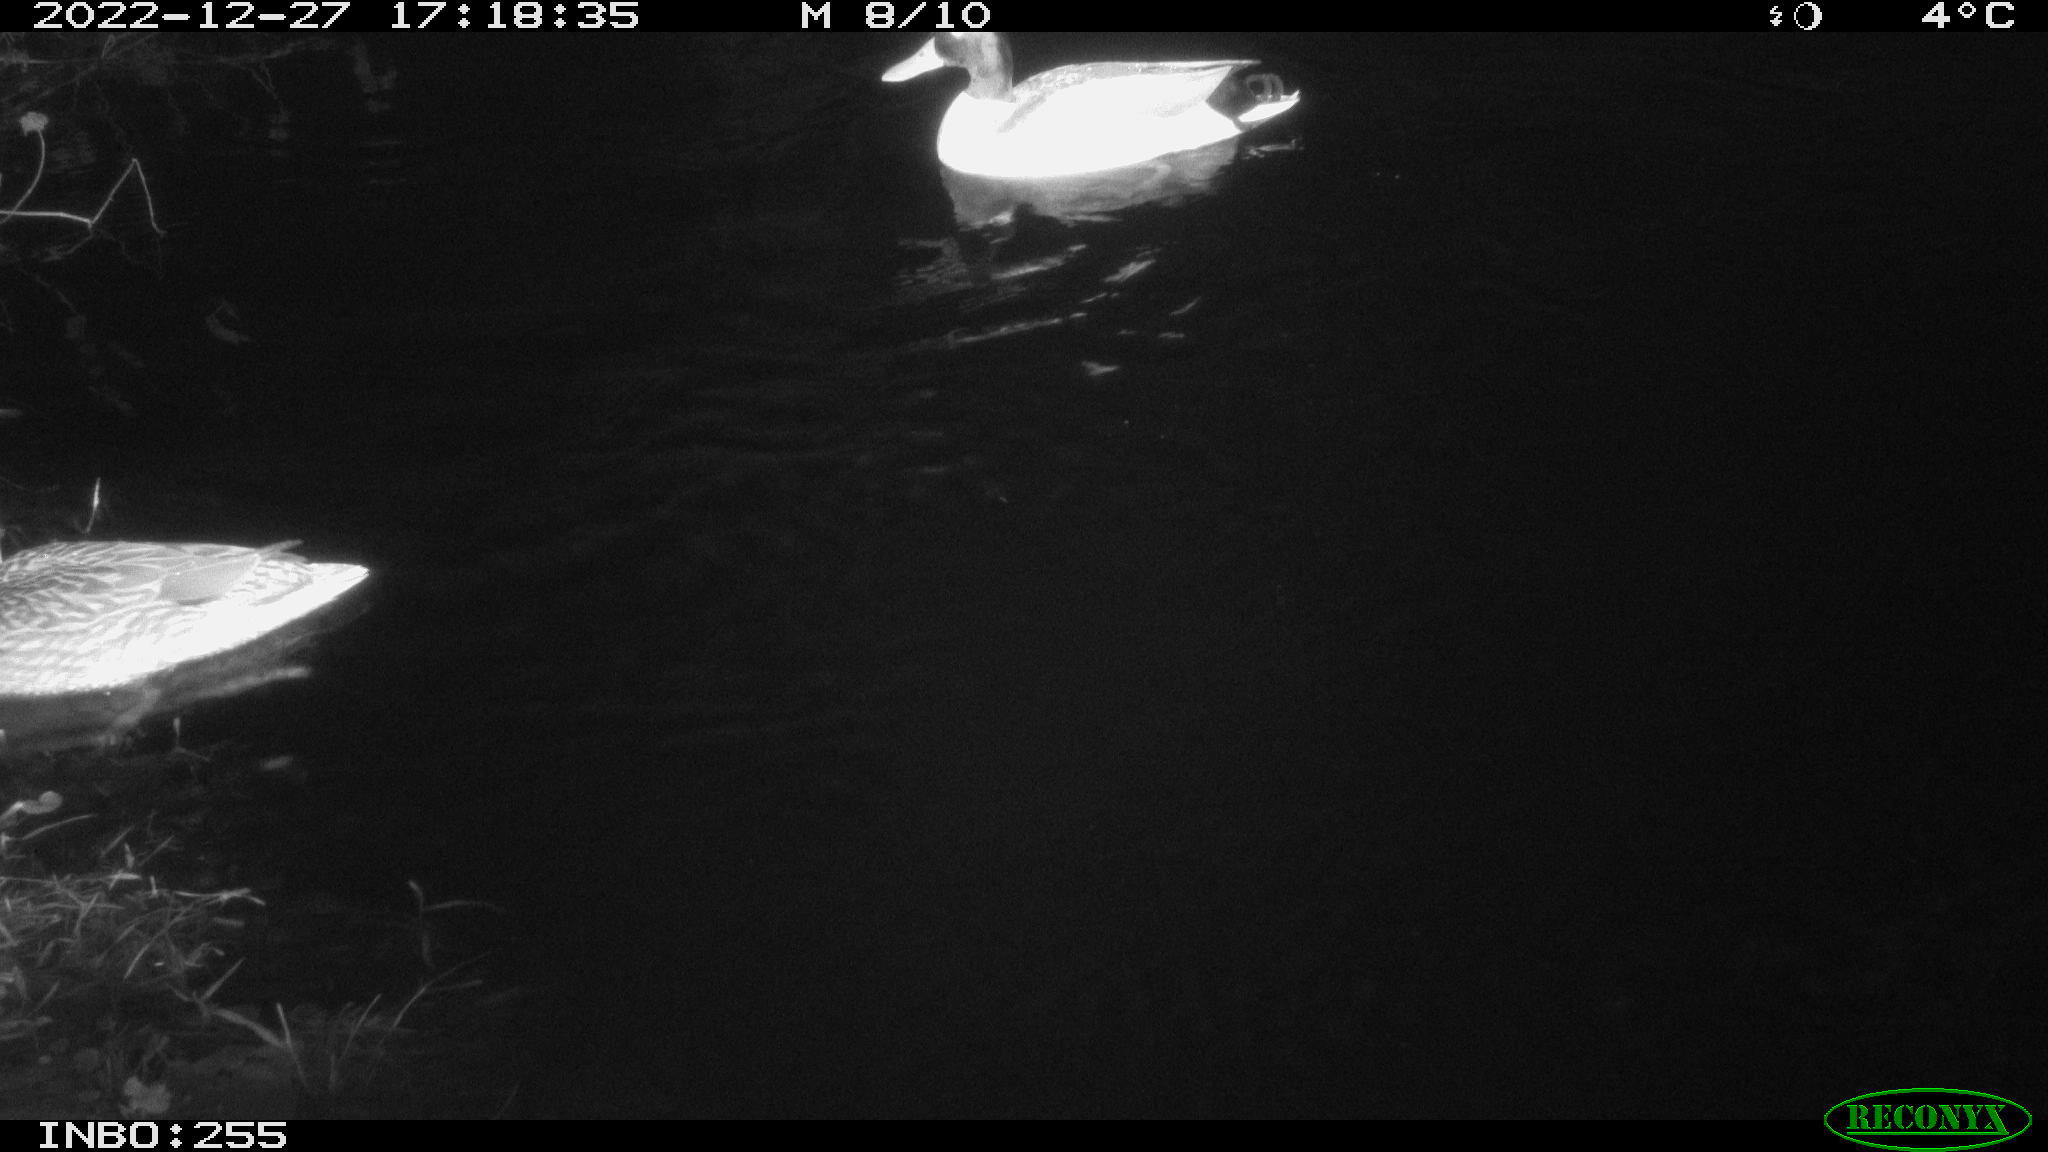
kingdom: Animalia
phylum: Chordata
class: Aves
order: Anseriformes
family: Anatidae
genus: Anas
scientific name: Anas
